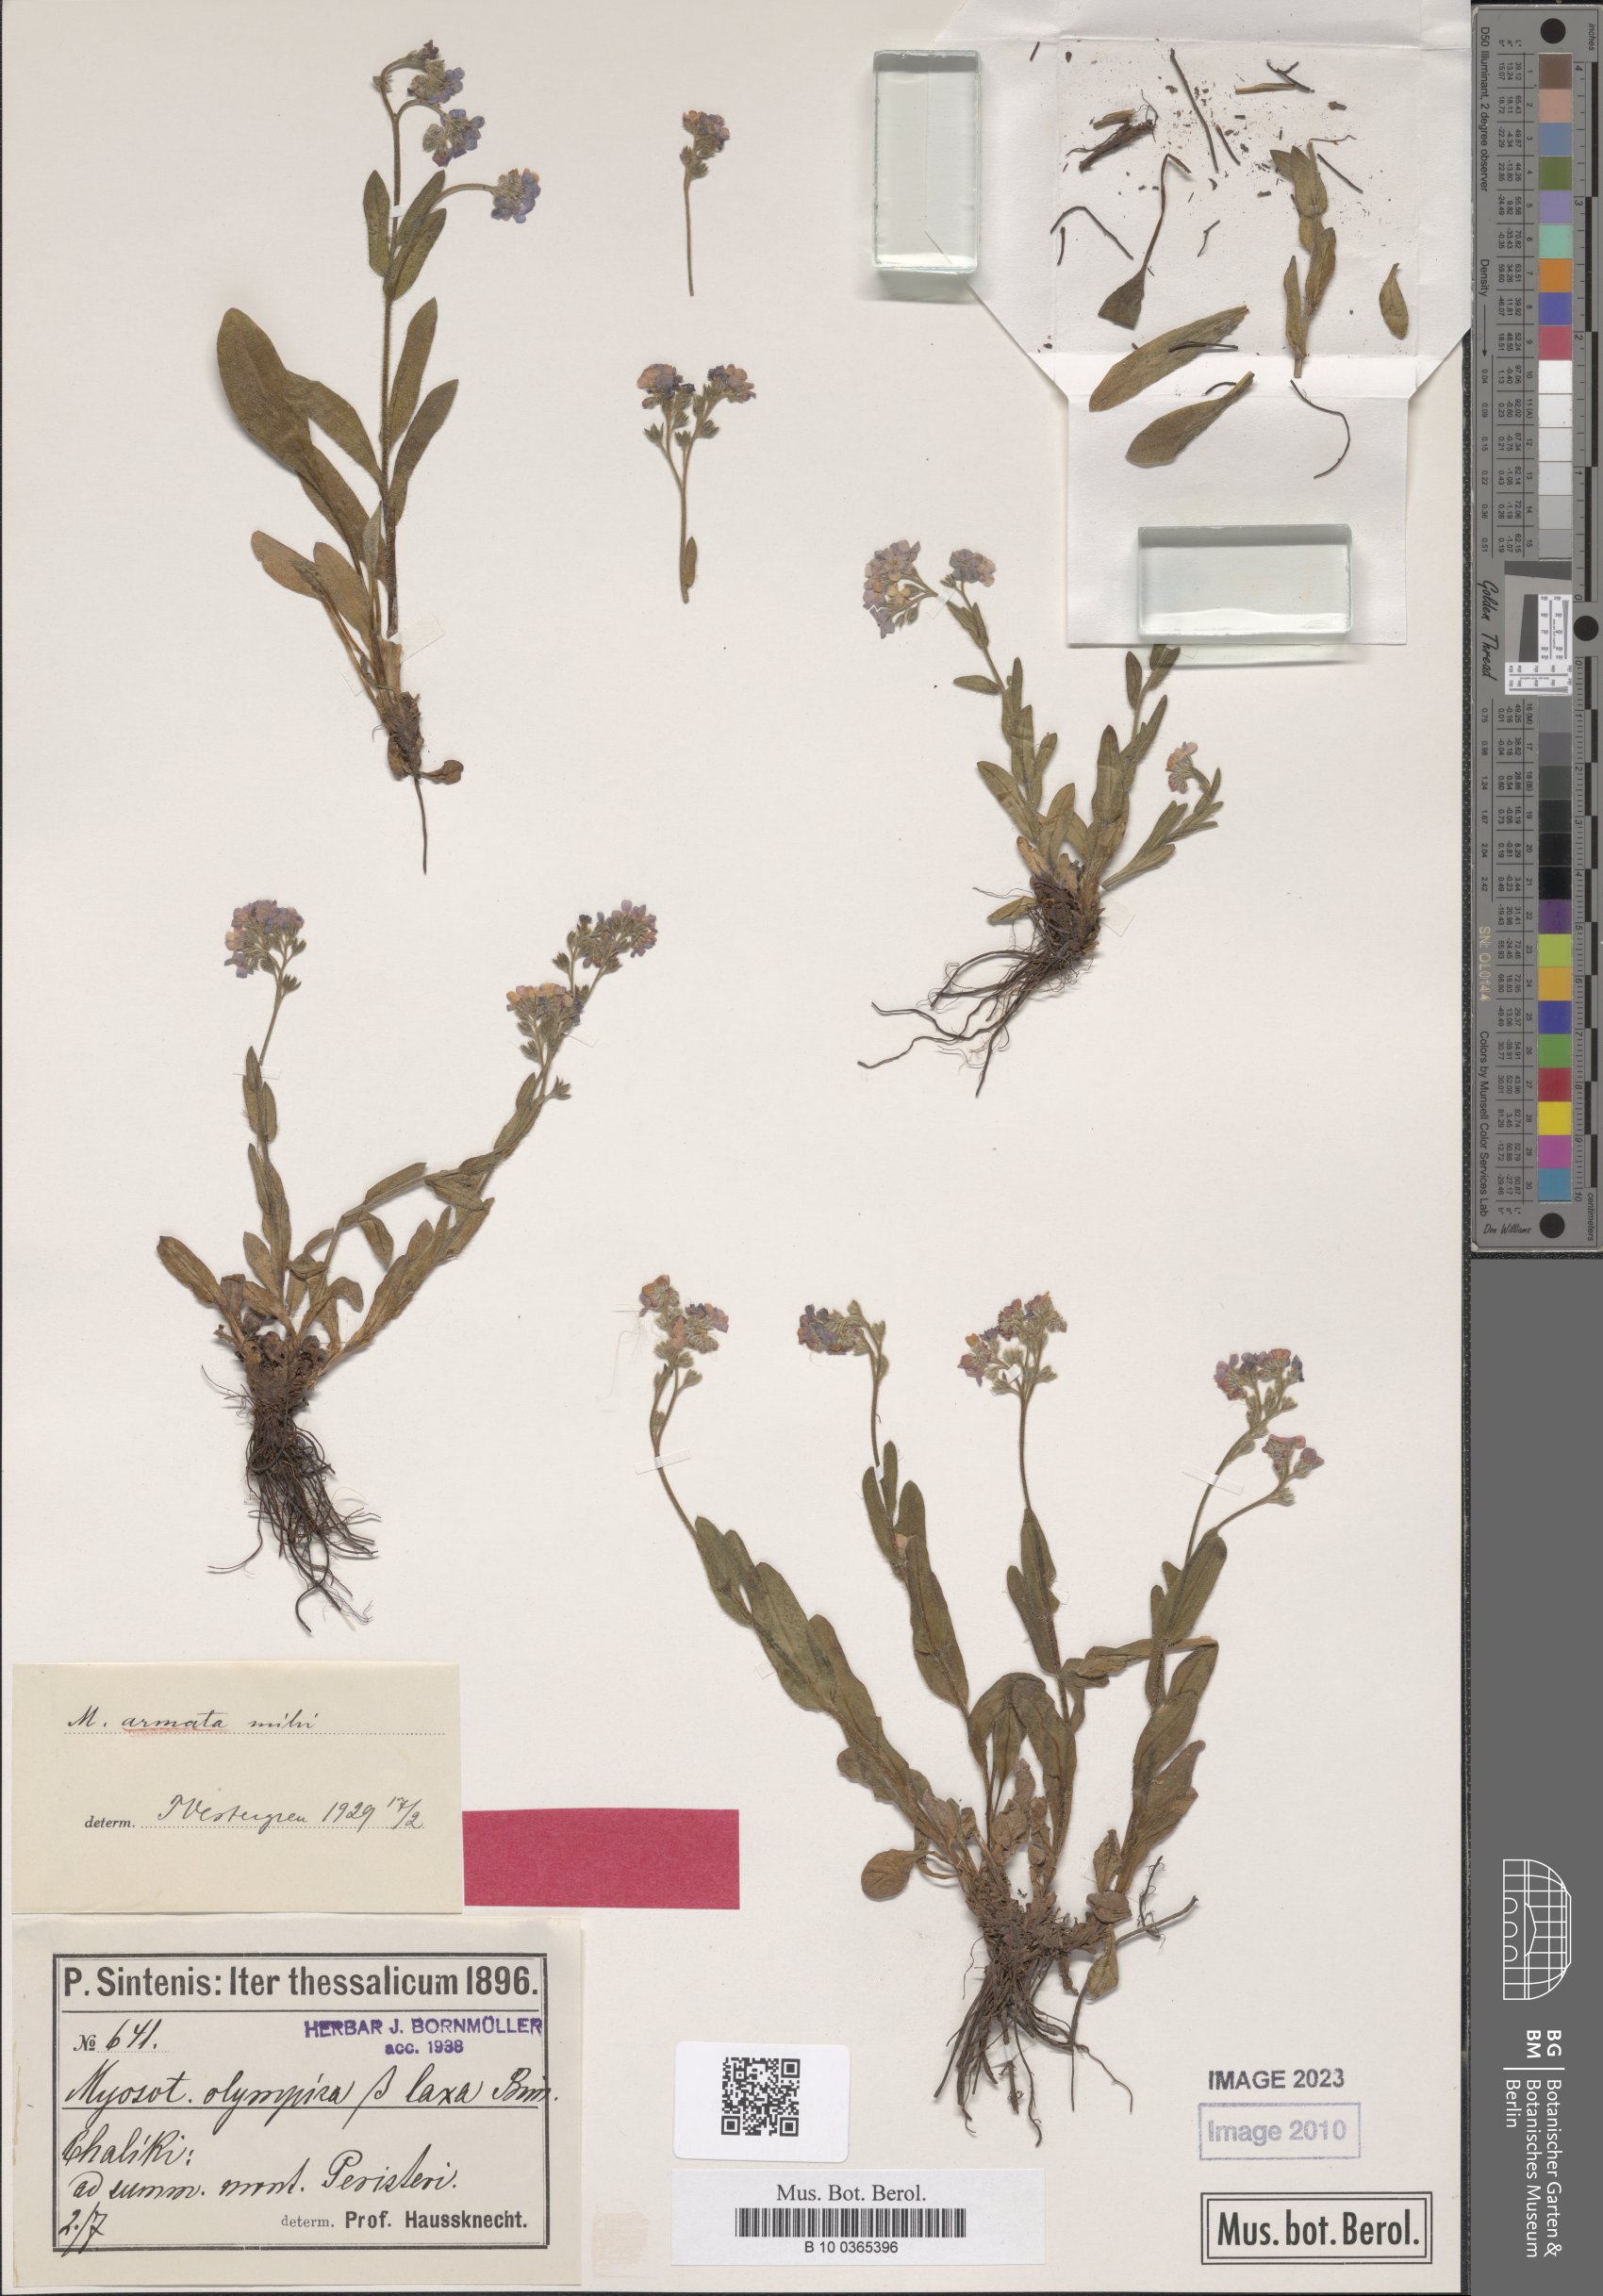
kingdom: Plantae
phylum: Tracheophyta
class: Magnoliopsida
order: Boraginales
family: Boraginaceae
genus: Myosotis
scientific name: Myosotis alpestris
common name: Alpine forget-me-not
